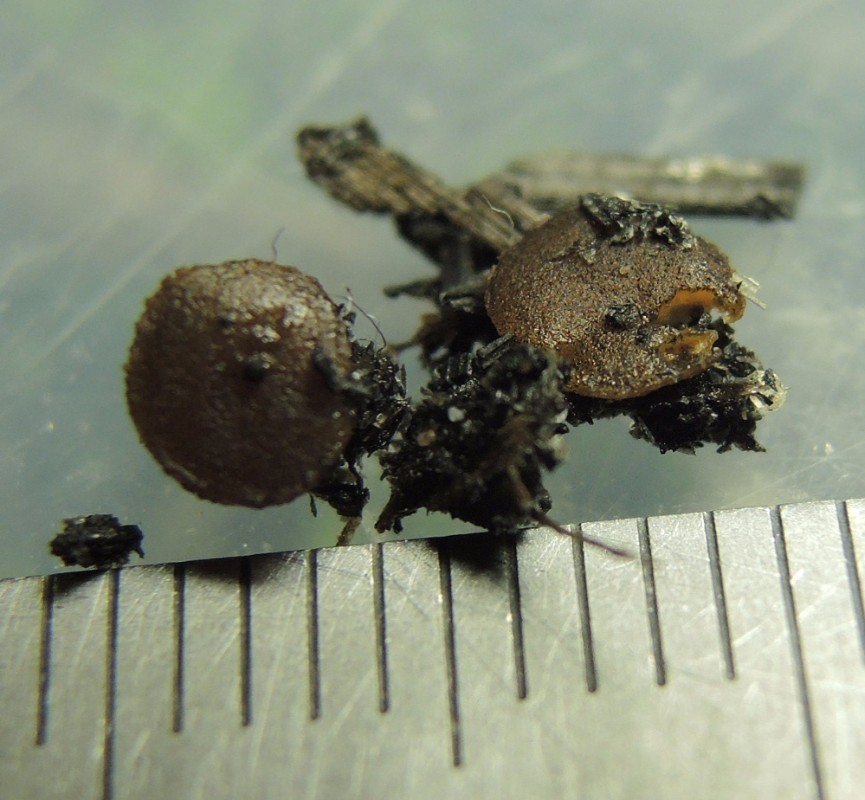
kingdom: Fungi
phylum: Ascomycota
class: Pezizomycetes
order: Pezizales
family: Ascobolaceae
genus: Ascobolus
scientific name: Ascobolus carbonarius
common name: kul-prikbæger
